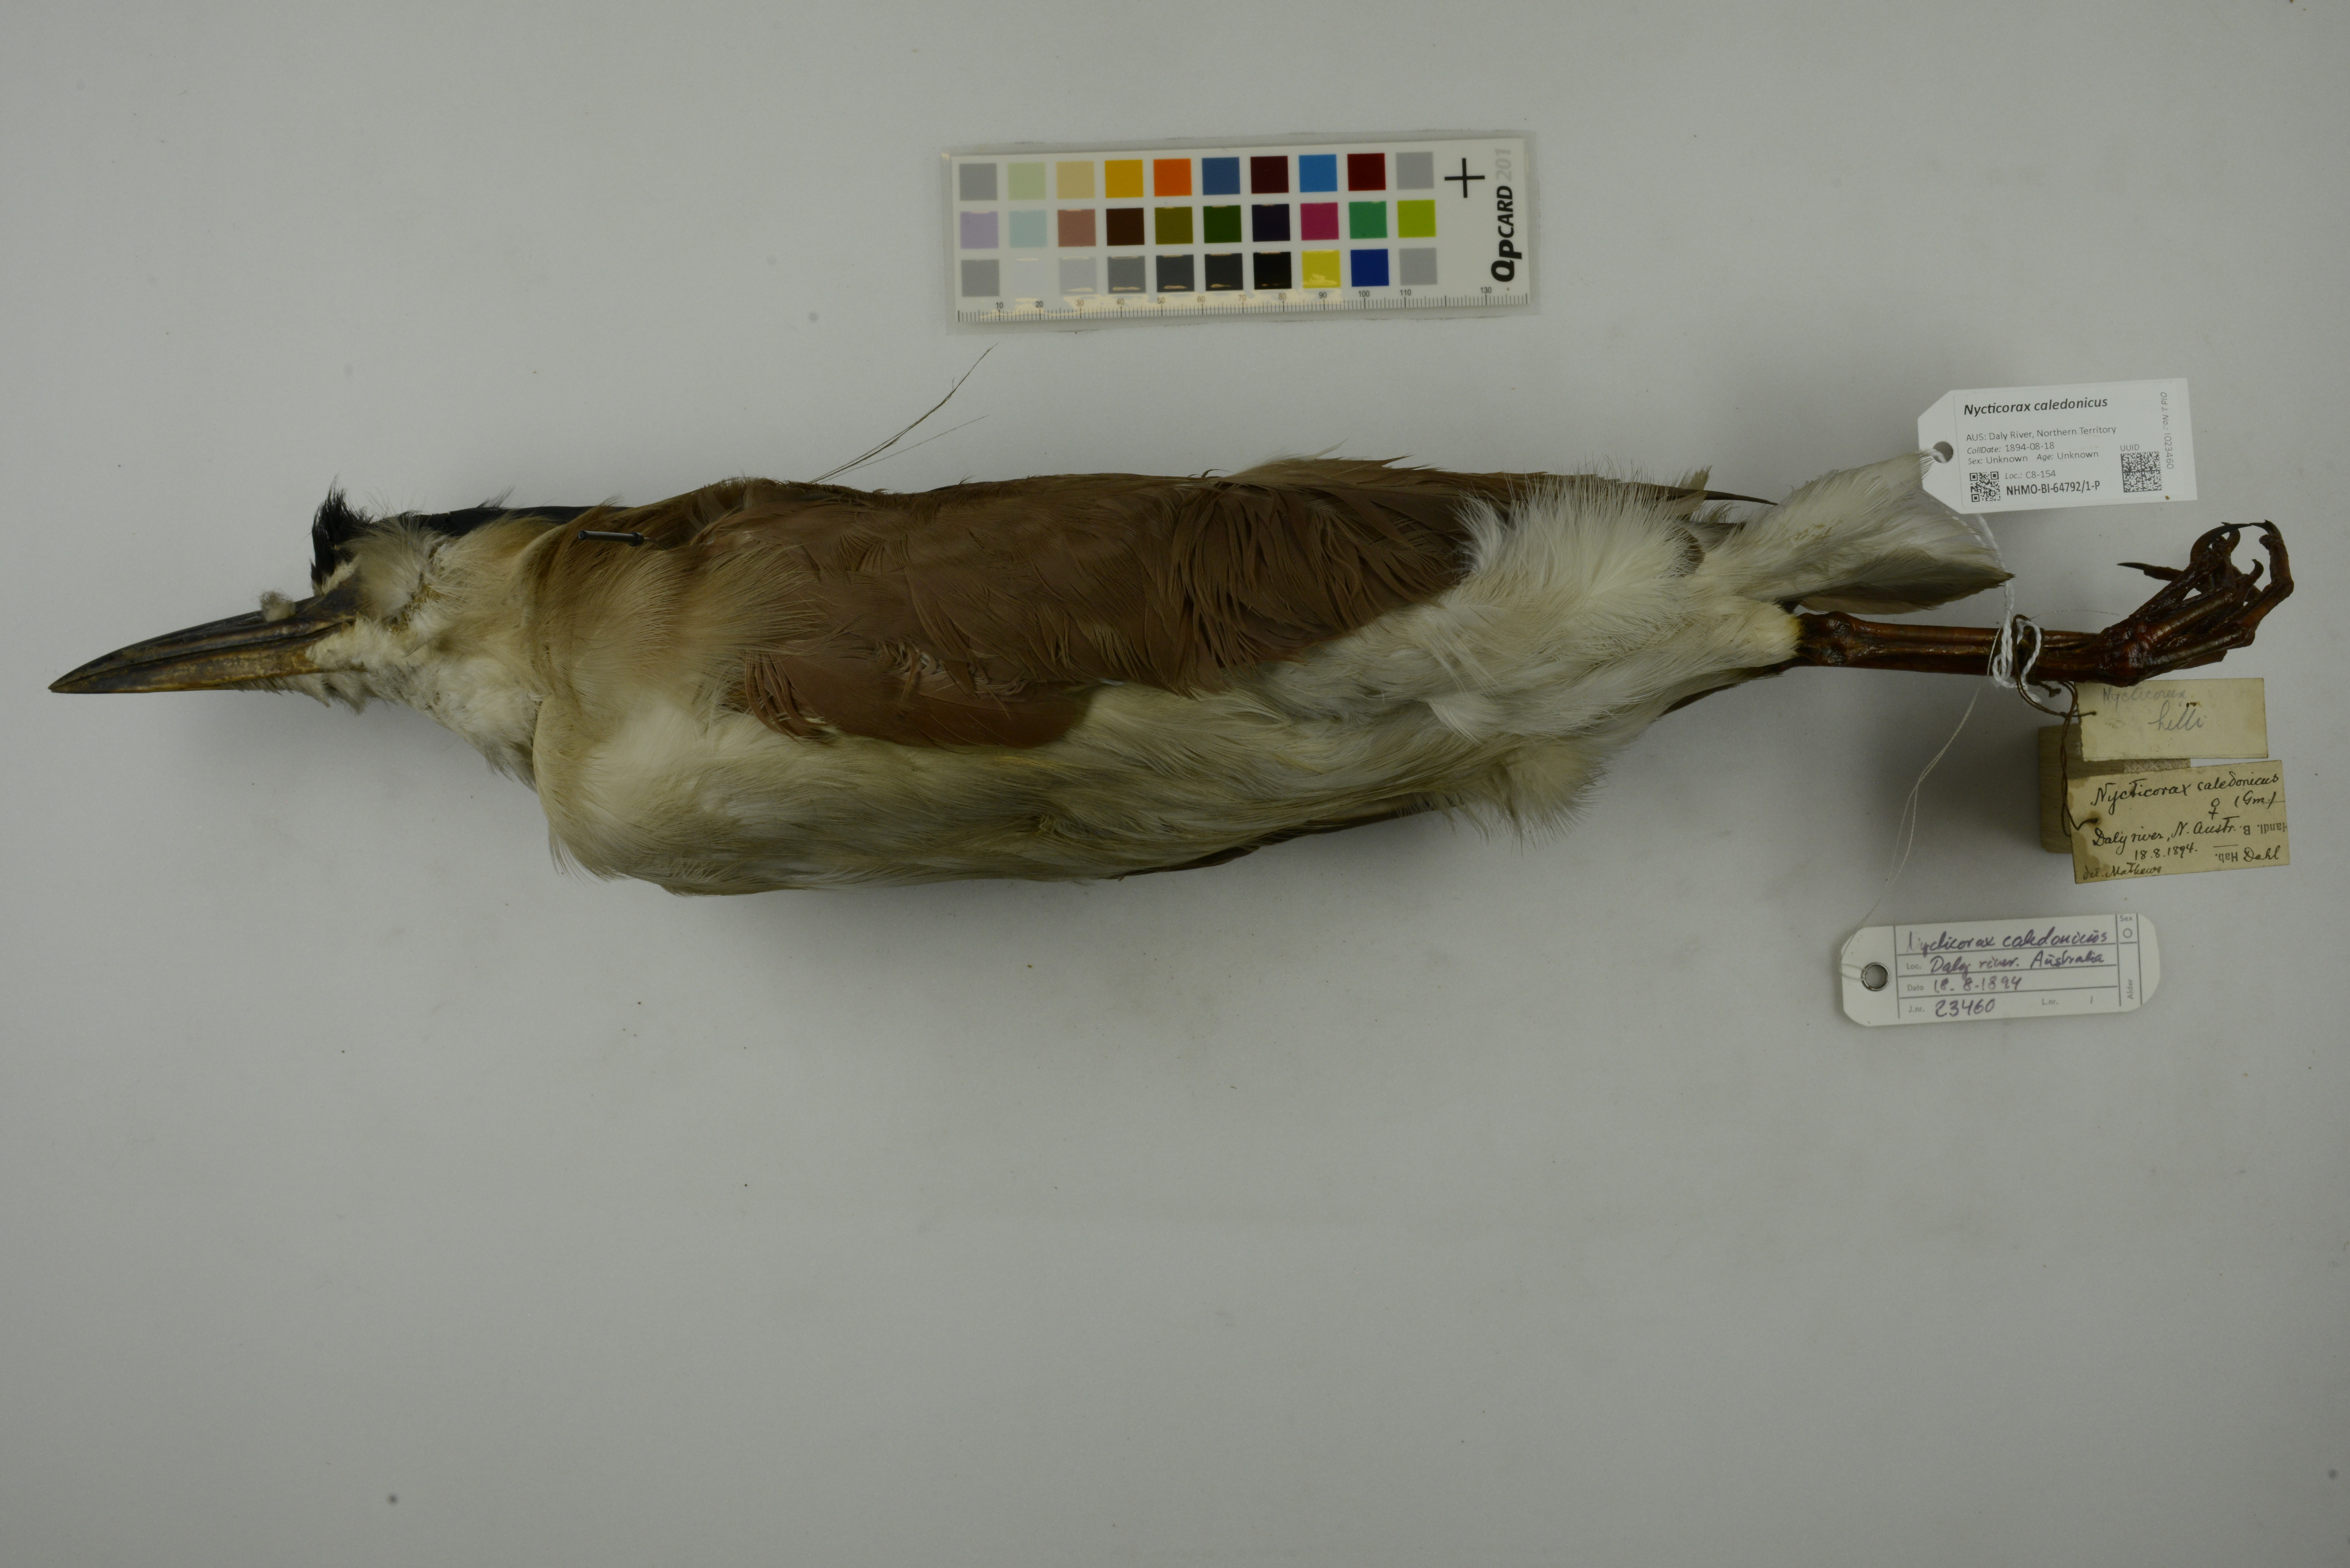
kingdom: Animalia
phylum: Chordata
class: Aves
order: Pelecaniformes
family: Ardeidae
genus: Nycticorax
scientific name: Nycticorax caledonicus
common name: Rufous night-heron
